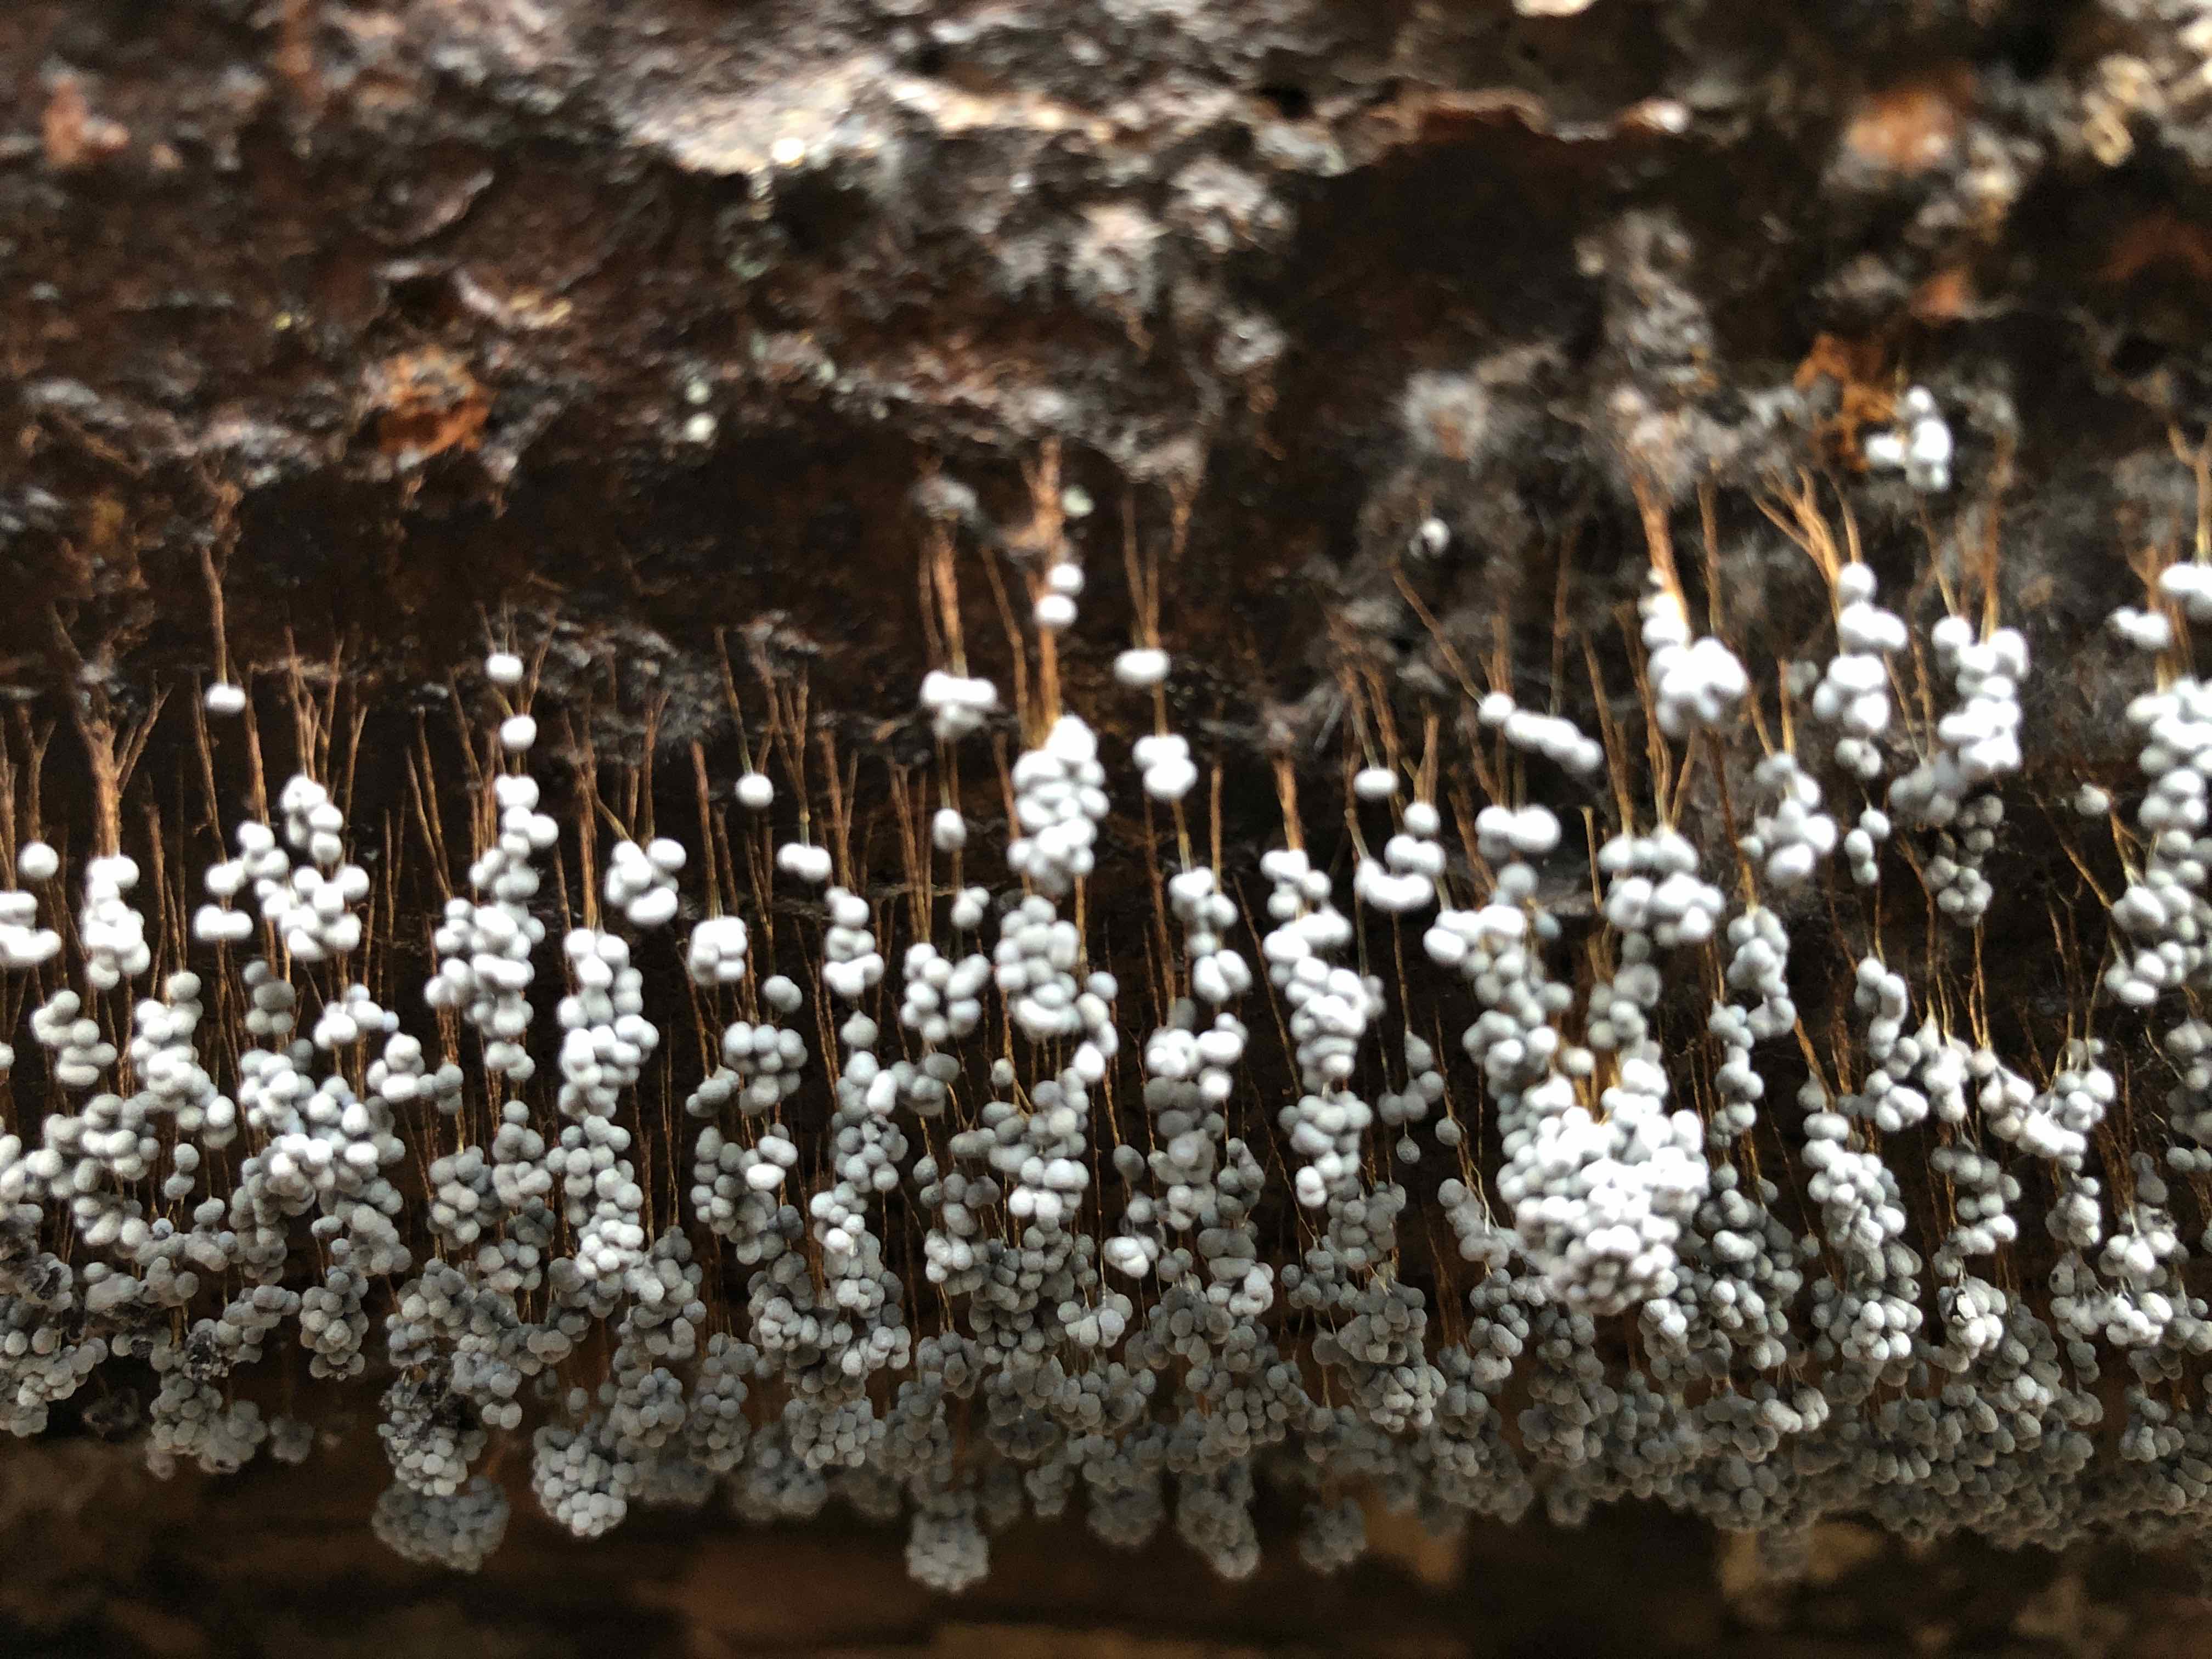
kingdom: Protozoa
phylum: Mycetozoa
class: Myxomycetes
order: Physarales
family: Physaraceae
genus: Badhamia
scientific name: Badhamia utricularis
